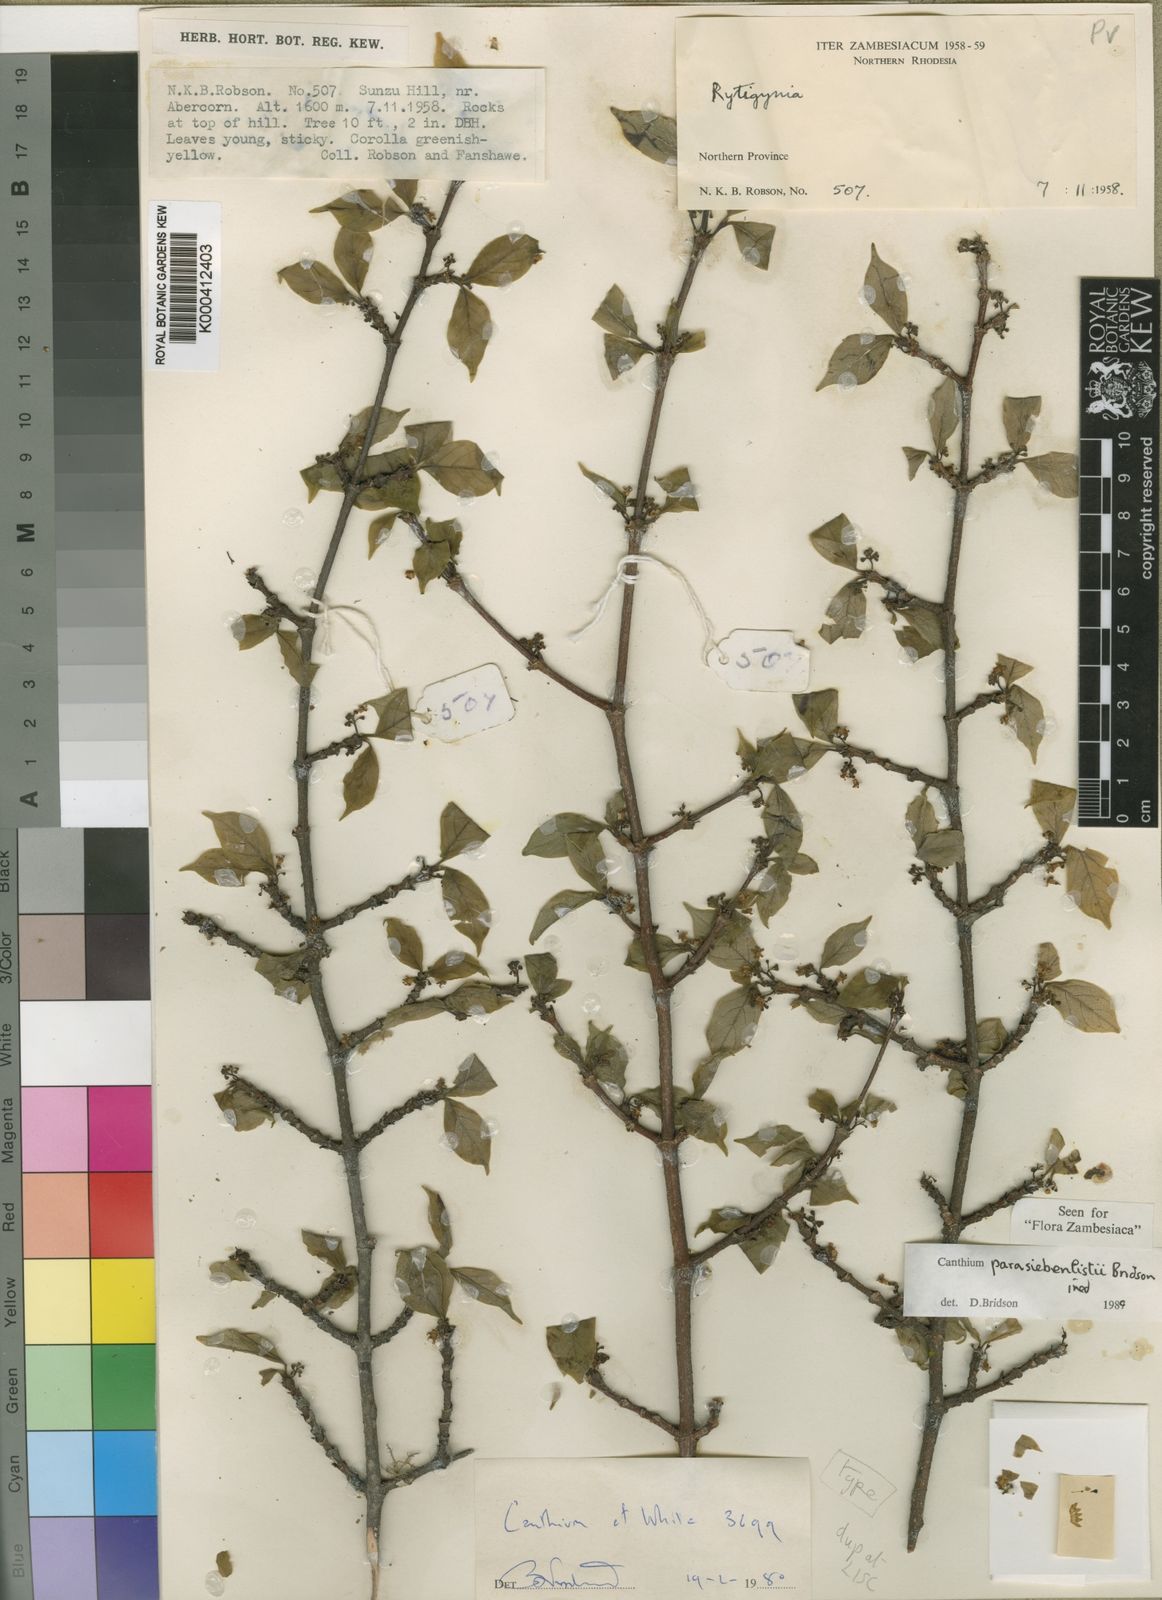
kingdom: Plantae
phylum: Tracheophyta
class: Magnoliopsida
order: Gentianales
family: Rubiaceae
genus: Afrocanthium
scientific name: Afrocanthium parasiebenlistii
